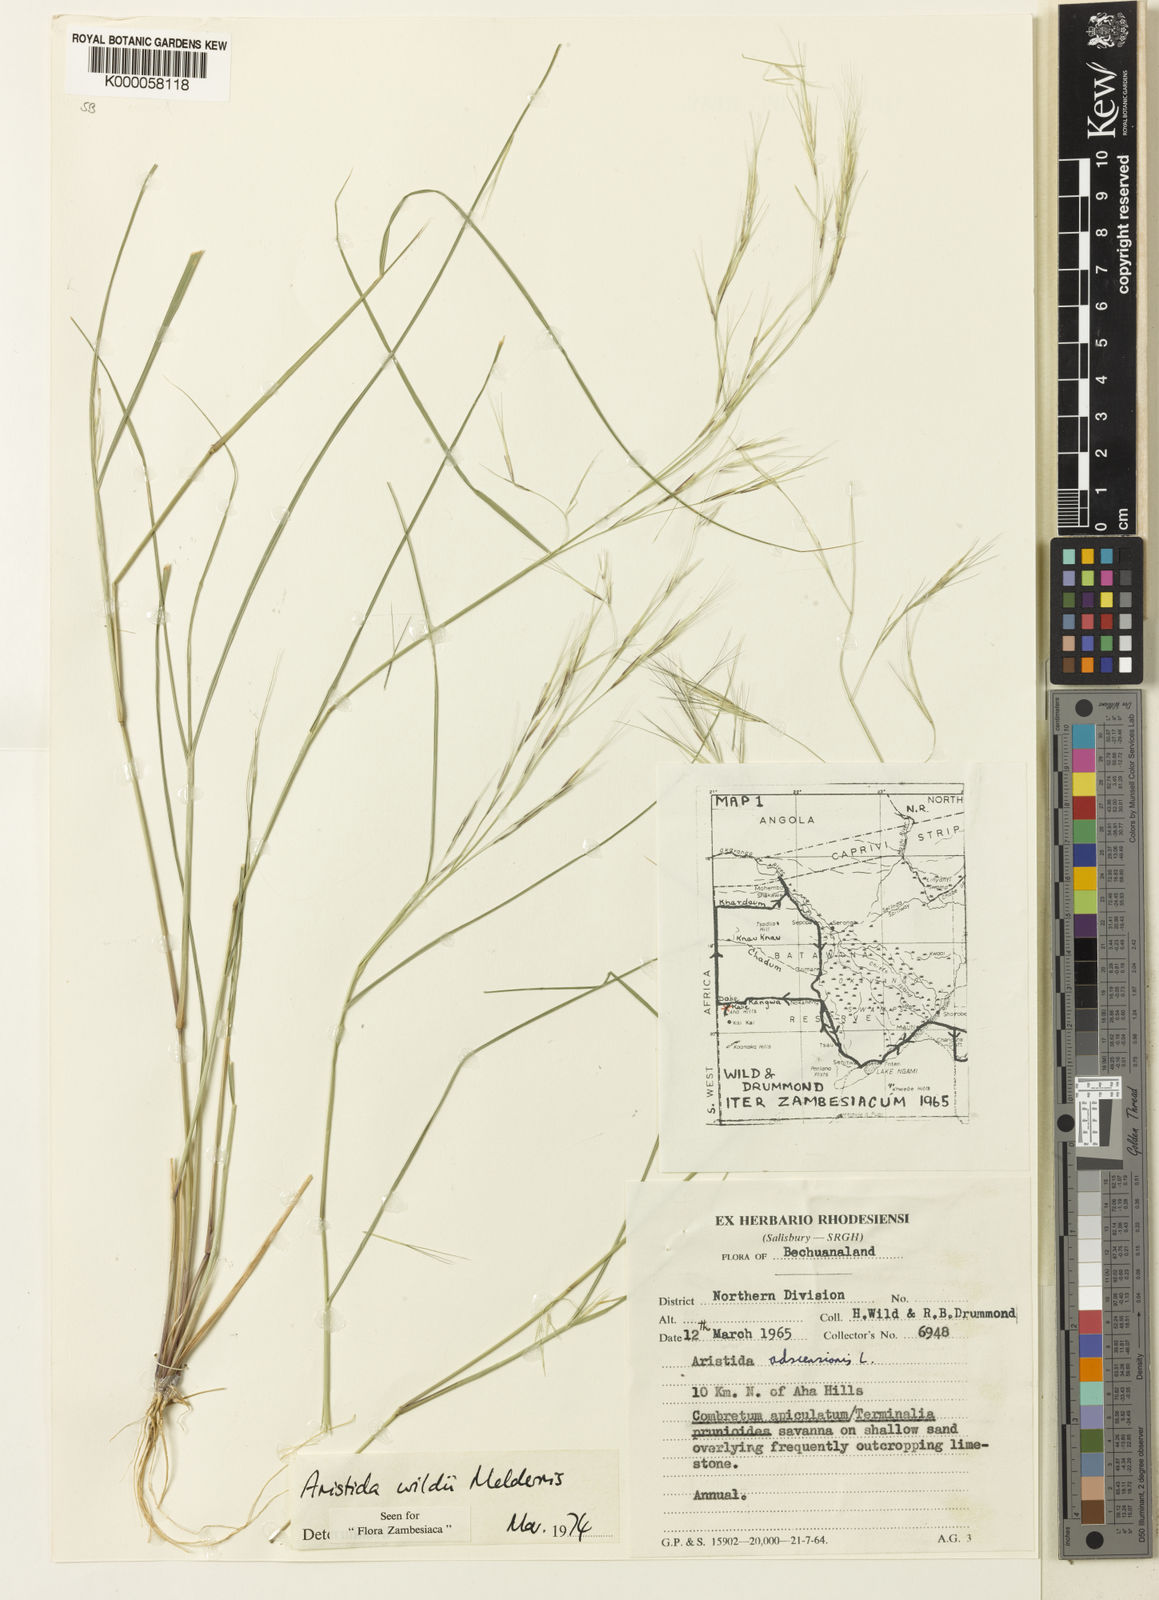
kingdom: Plantae
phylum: Tracheophyta
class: Liliopsida
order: Poales
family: Poaceae
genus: Aristida
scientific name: Aristida wildii
